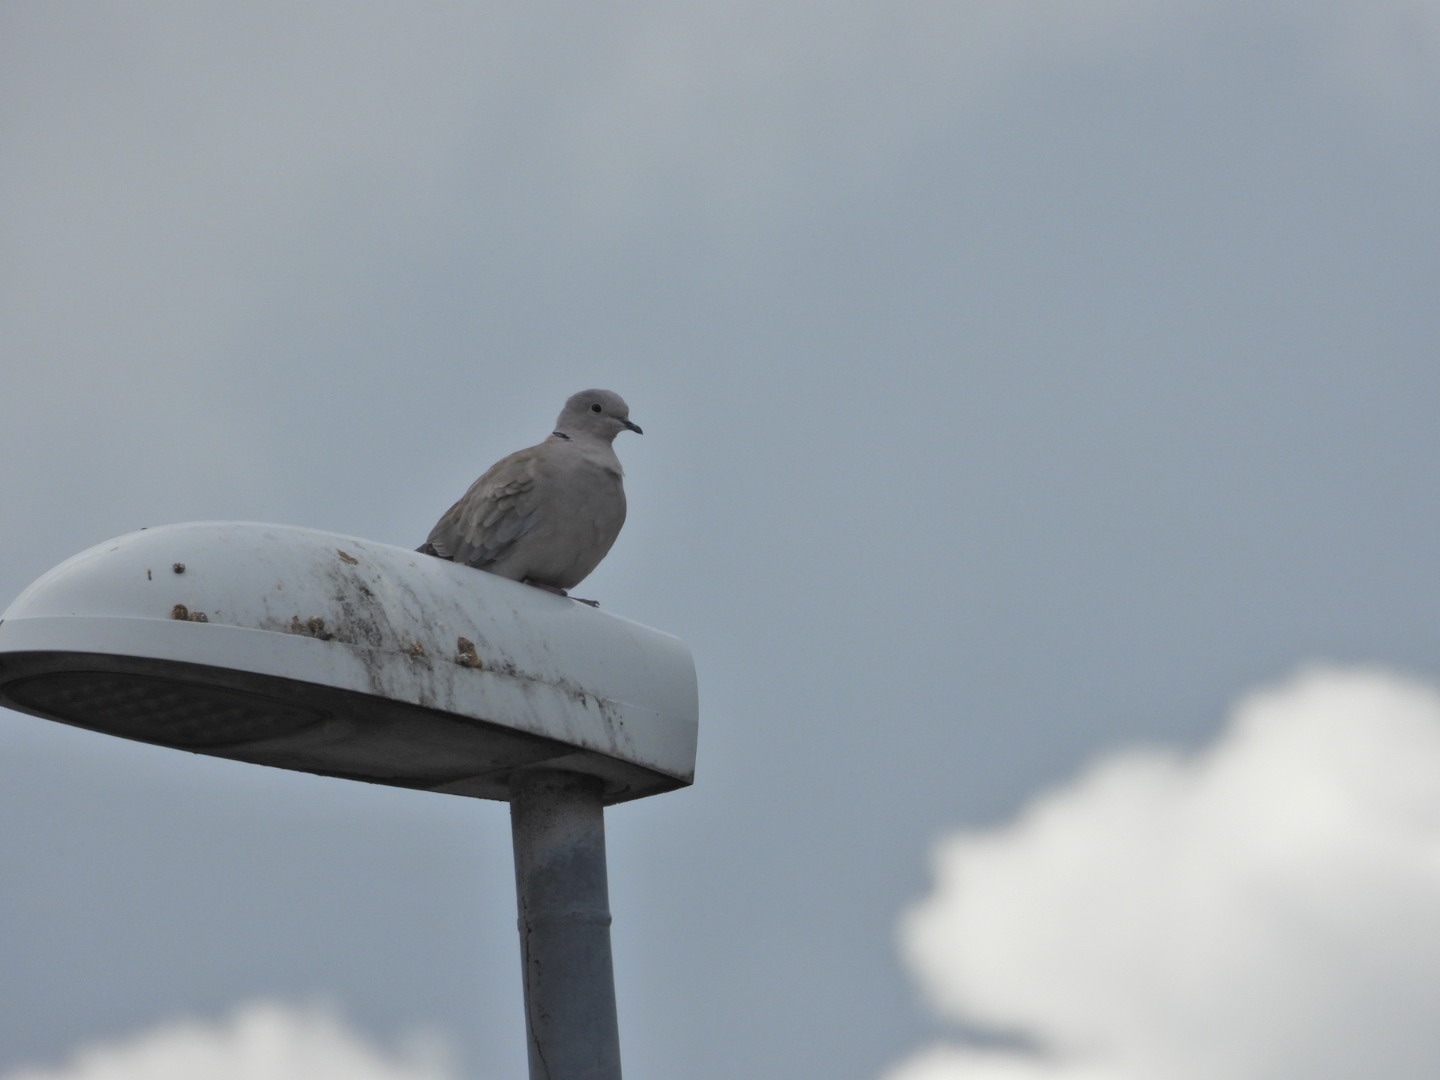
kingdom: Animalia
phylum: Chordata
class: Aves
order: Columbiformes
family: Columbidae
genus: Streptopelia
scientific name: Streptopelia decaocto
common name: Tyrkerdue
